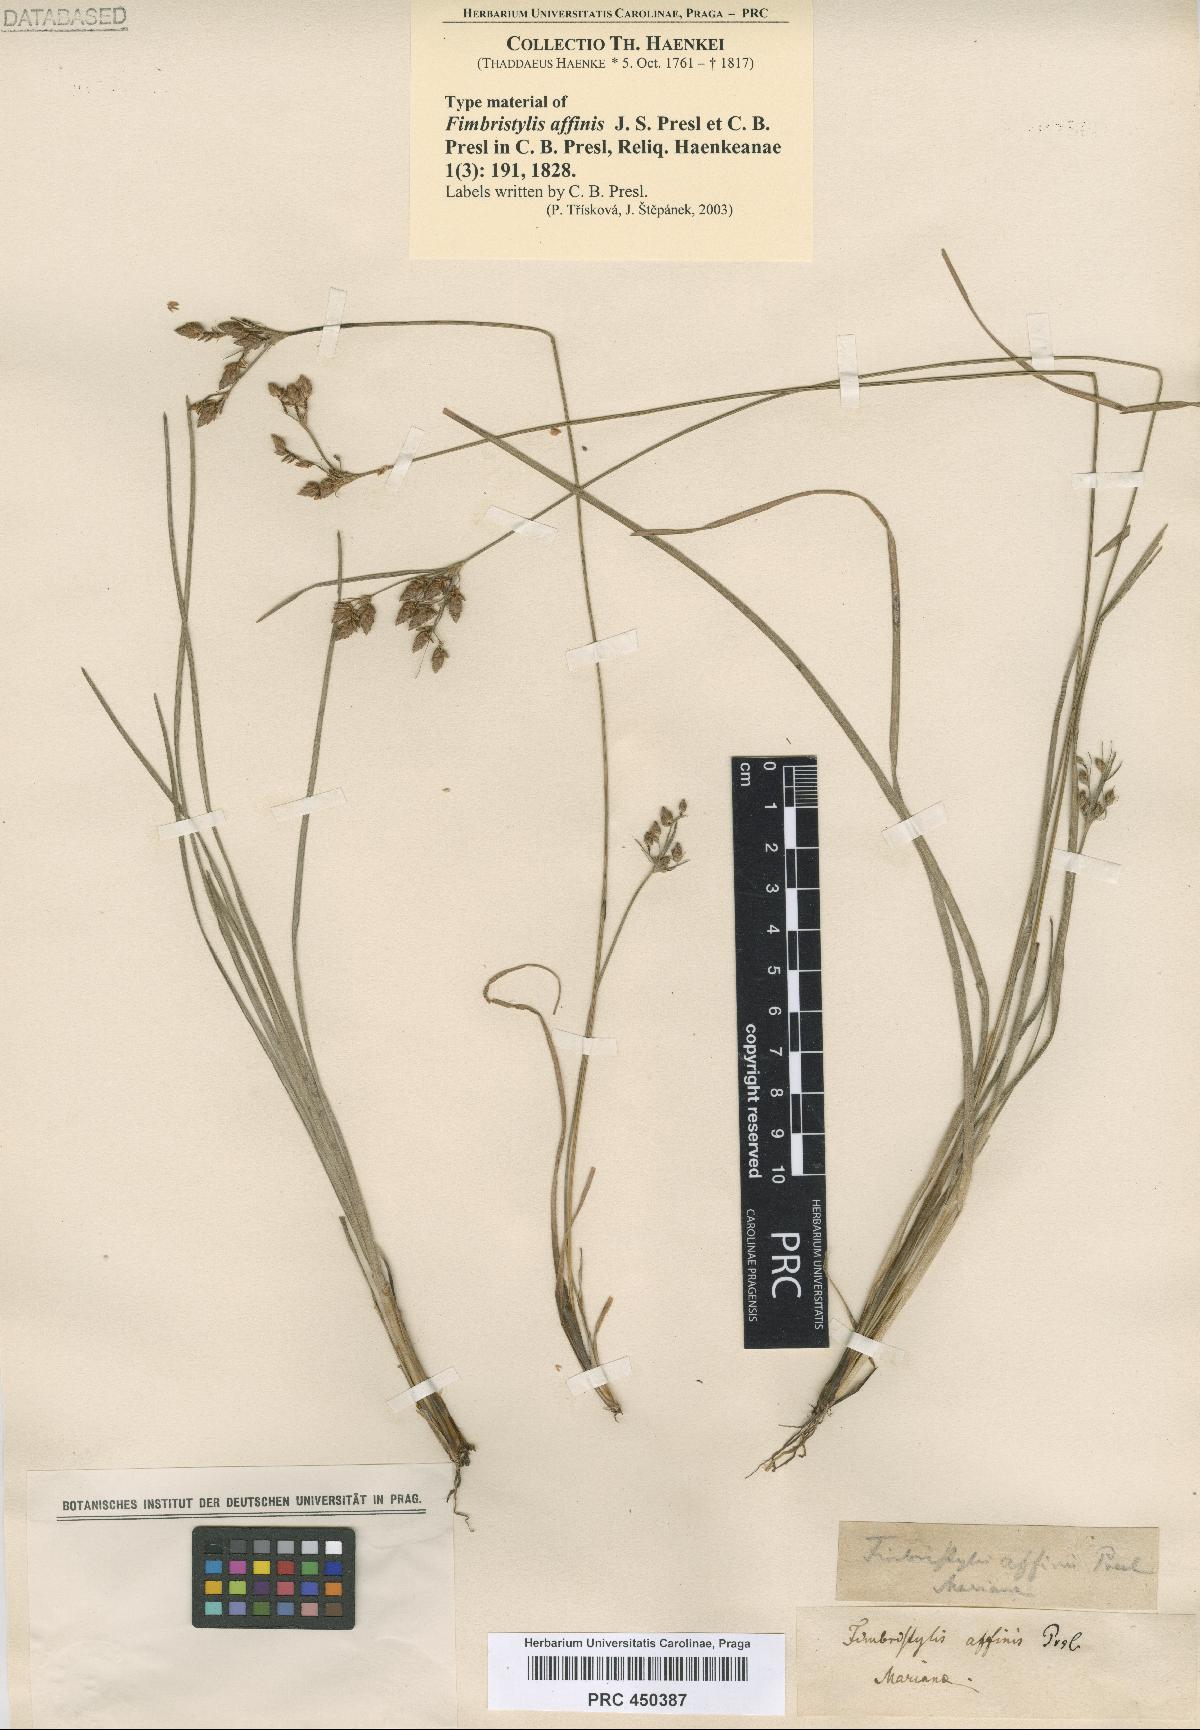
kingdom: Plantae
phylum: Tracheophyta
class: Liliopsida
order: Poales
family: Cyperaceae
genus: Fimbristylis
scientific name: Fimbristylis dichotoma
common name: Forked fimbry
